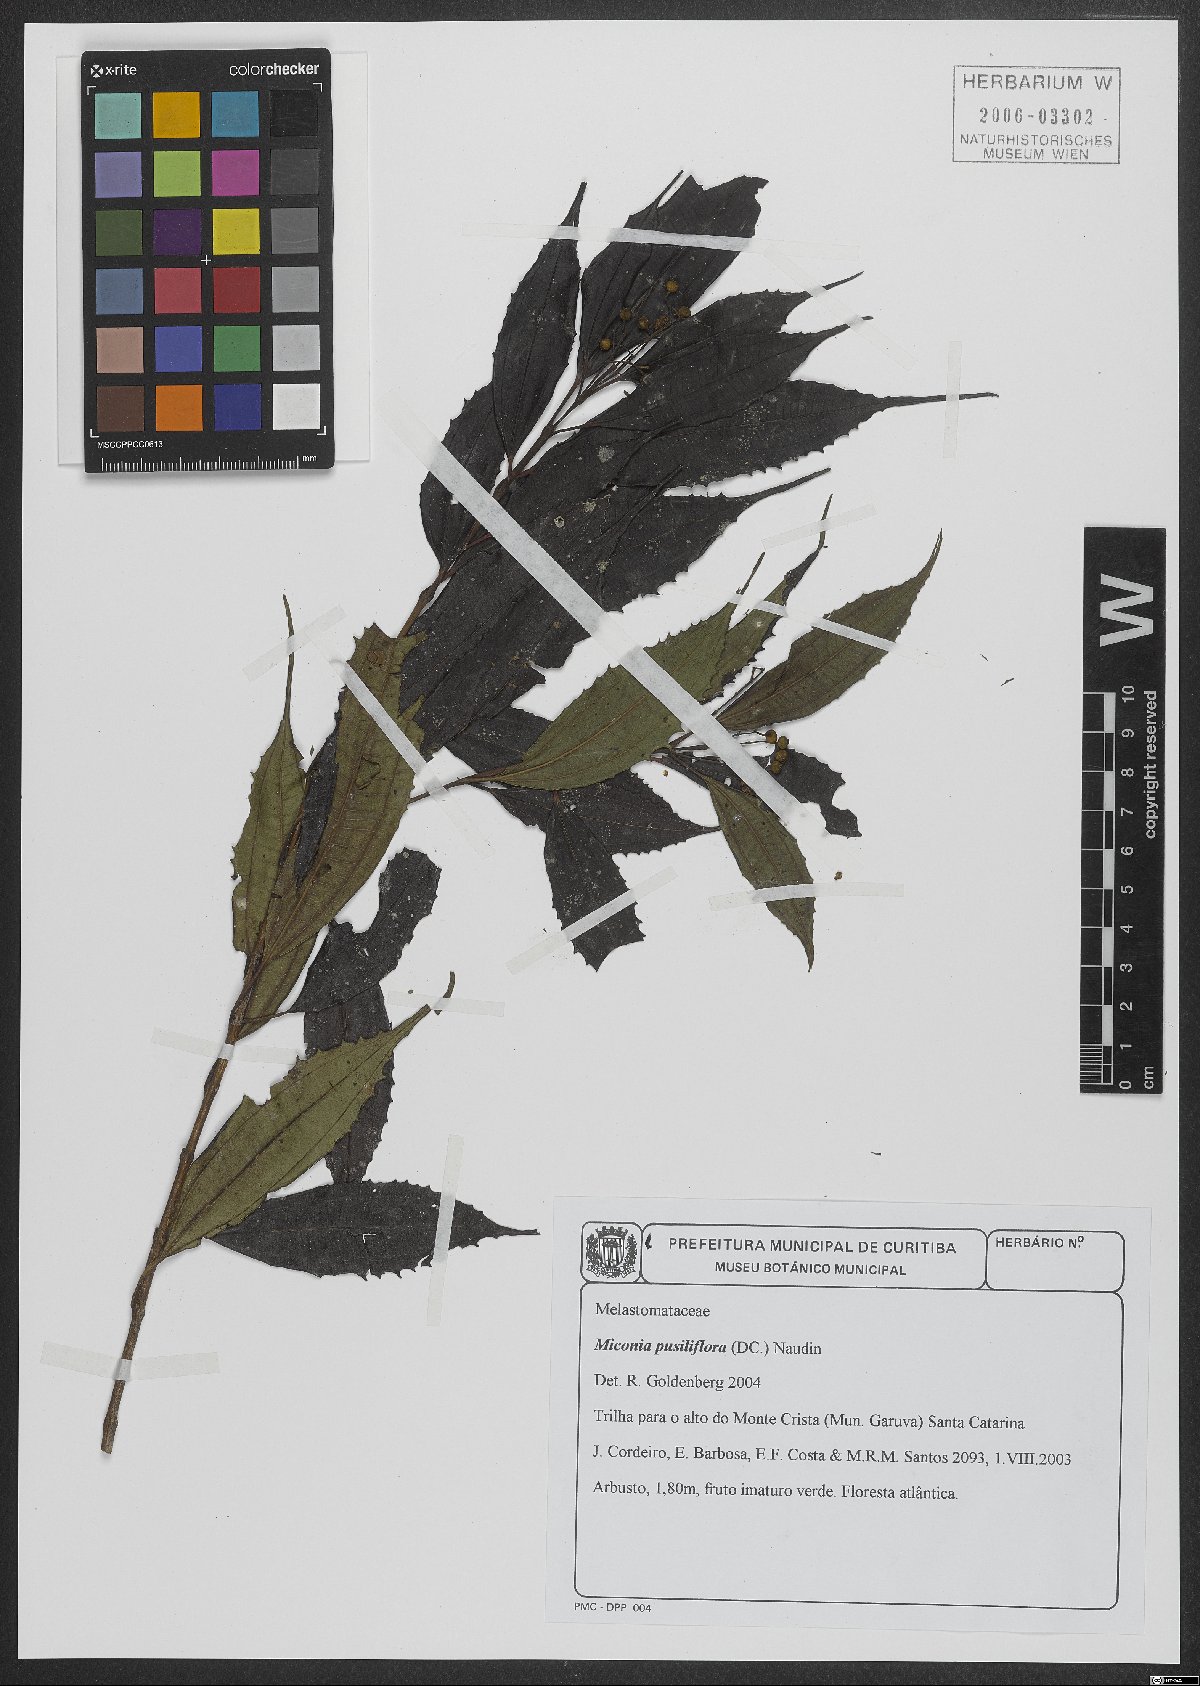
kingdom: Plantae
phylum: Tracheophyta
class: Magnoliopsida
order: Myrtales
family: Melastomataceae
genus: Miconia
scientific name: Miconia pusilliflora
